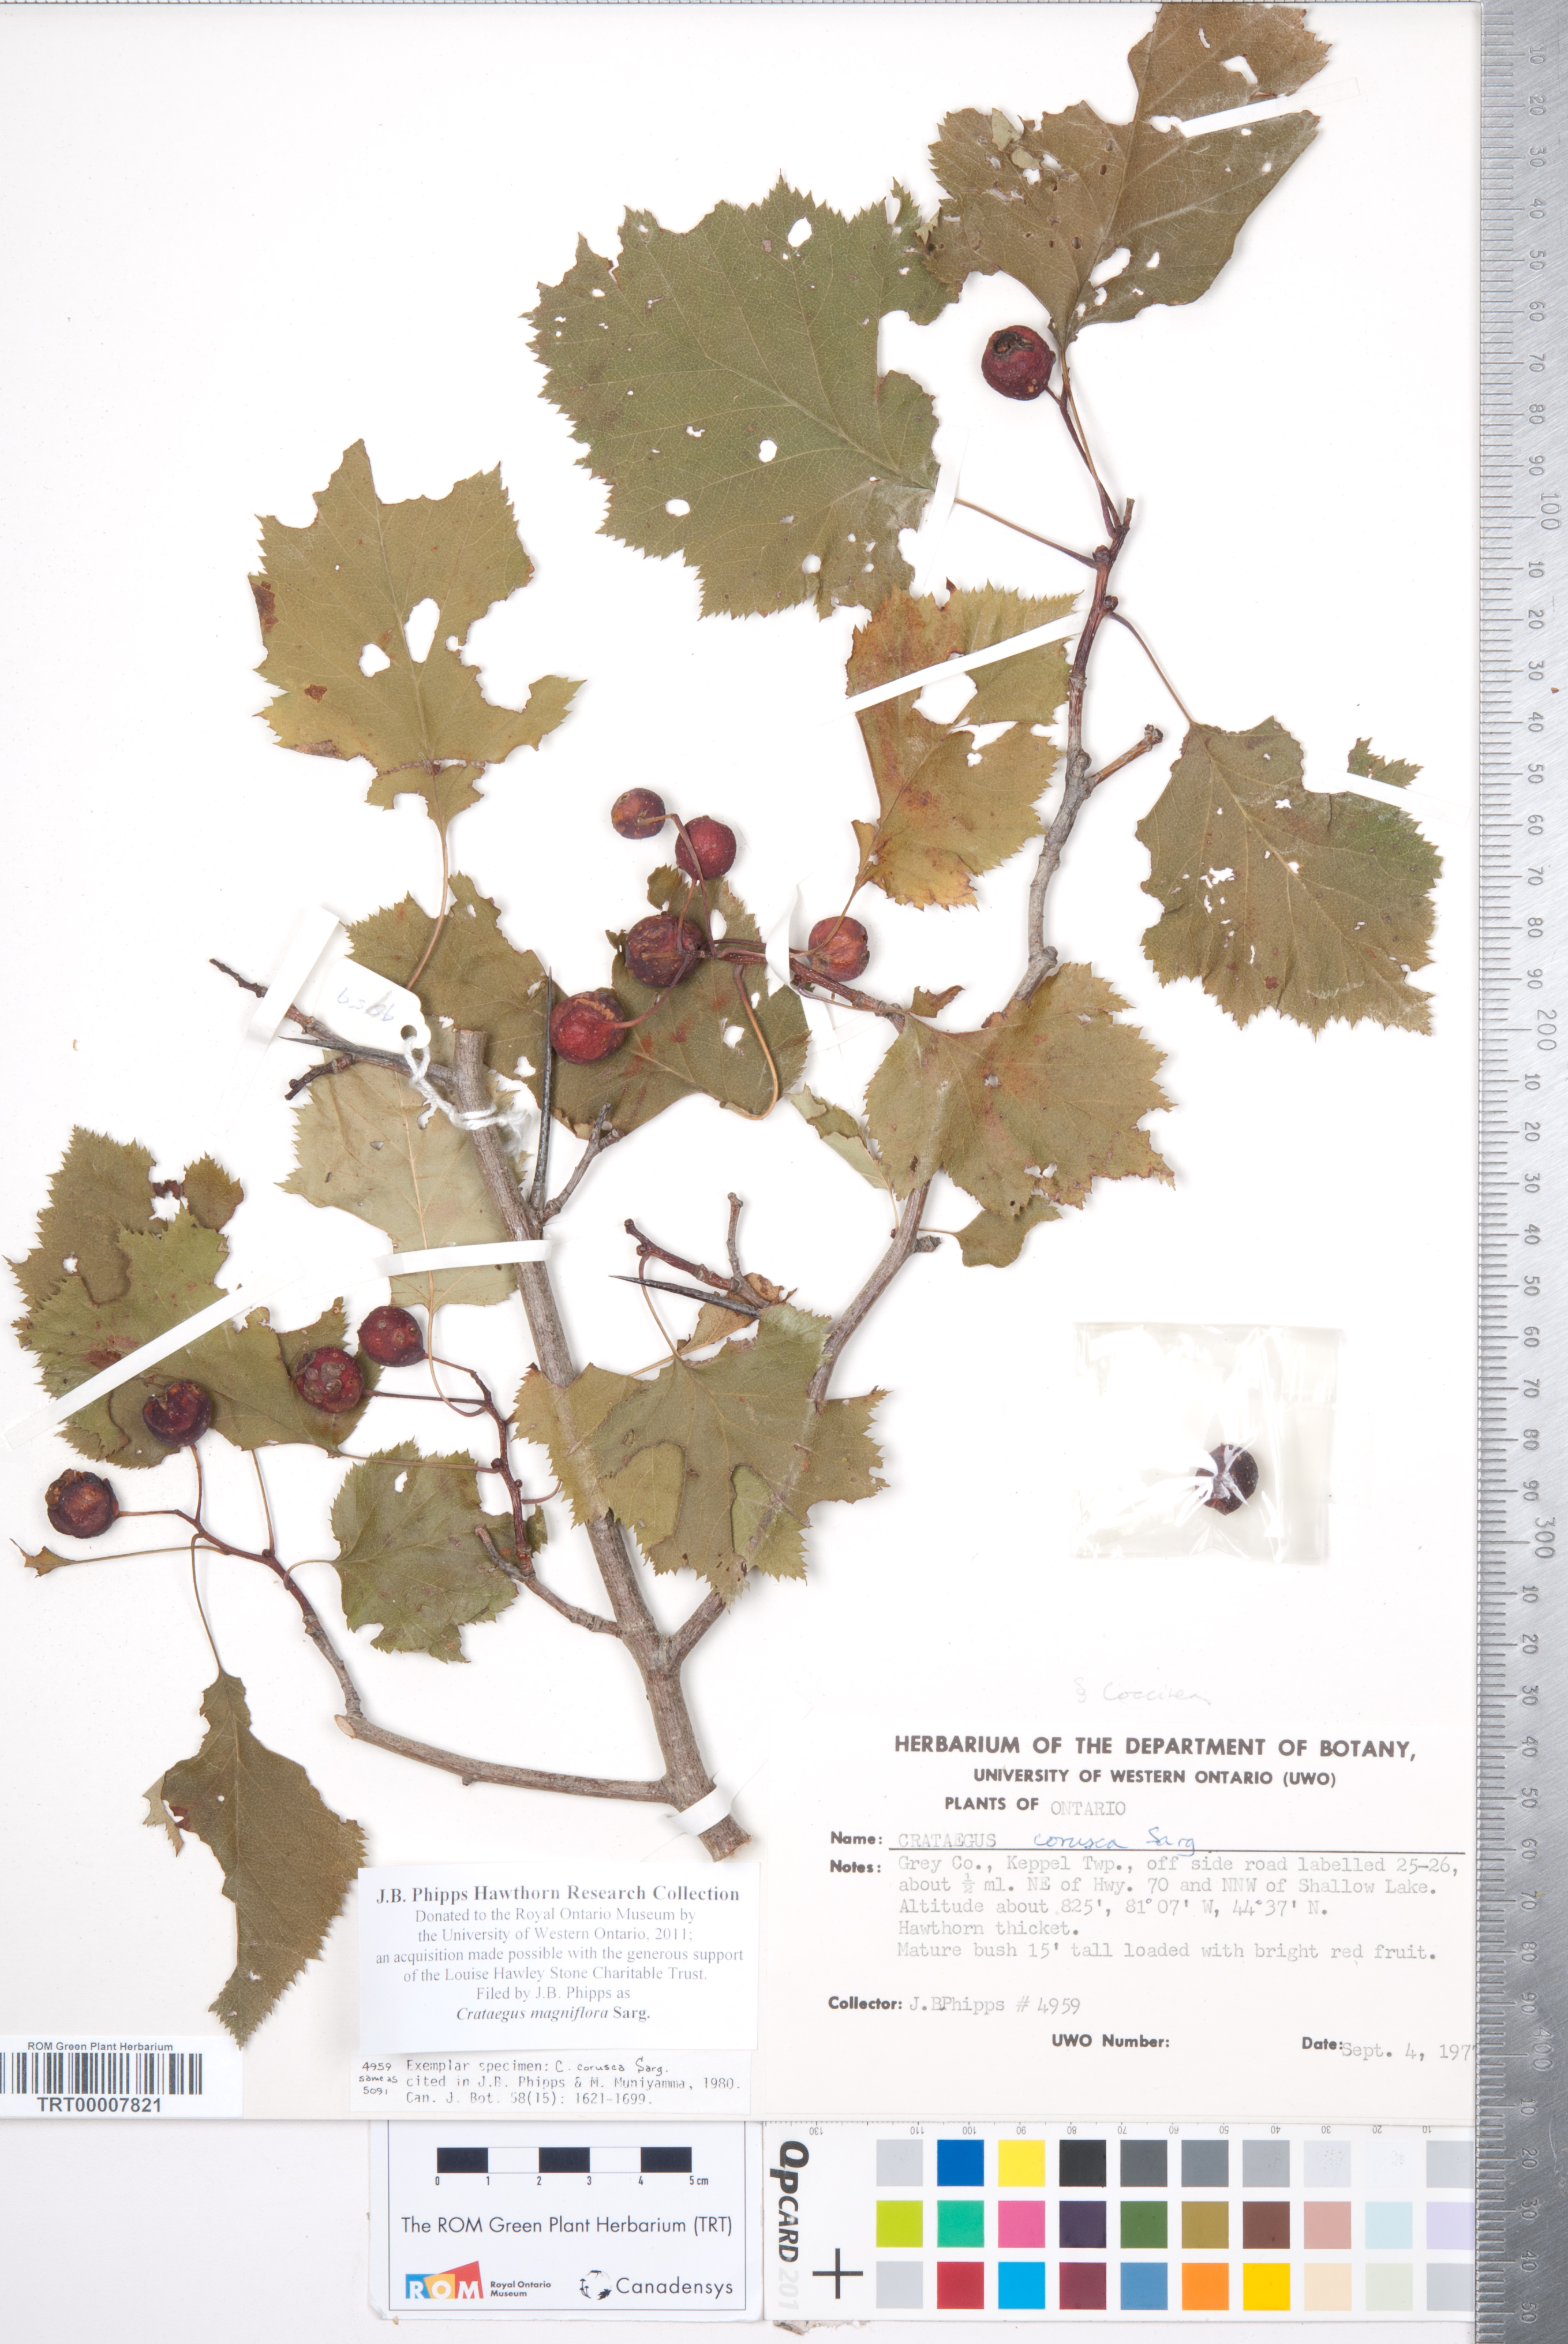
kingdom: Plantae
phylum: Tracheophyta
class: Magnoliopsida
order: Rosales
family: Rosaceae
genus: Crataegus
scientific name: Crataegus magniflora
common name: Gleaming hawthorn
